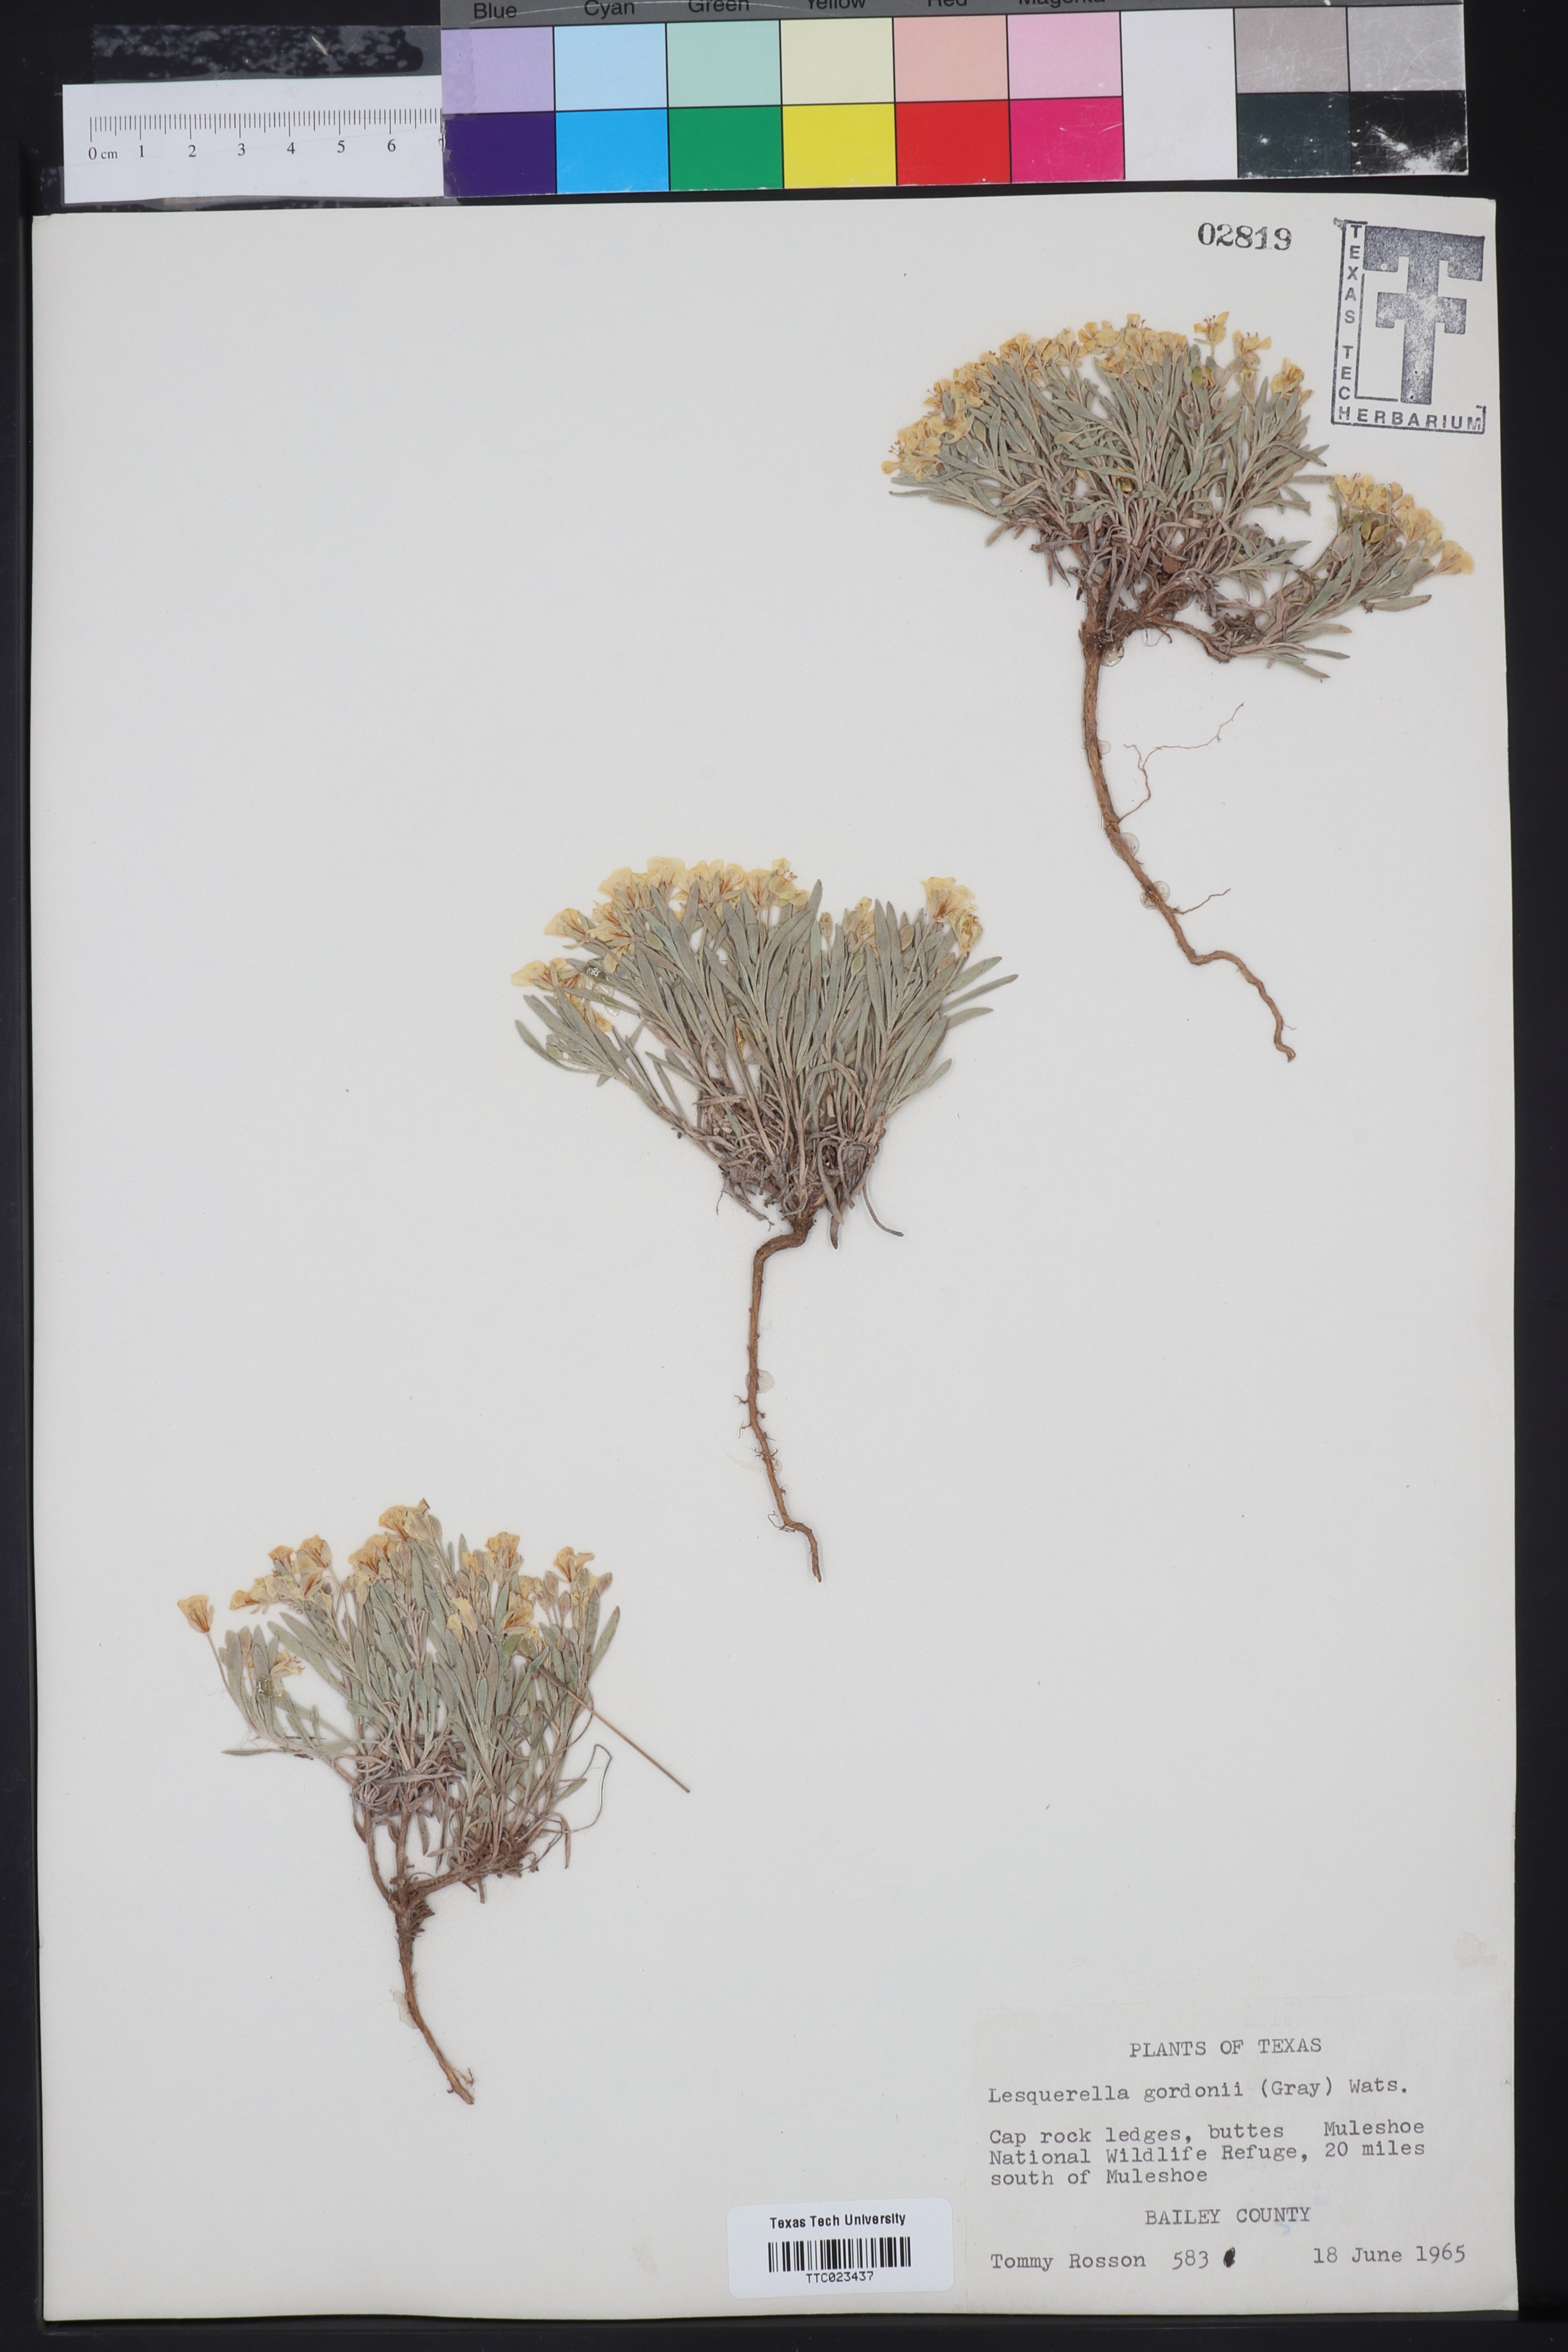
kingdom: Plantae
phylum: Tracheophyta
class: Magnoliopsida
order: Brassicales
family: Brassicaceae
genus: Physaria
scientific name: Physaria gordonii
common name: Gordon's bladderpod
